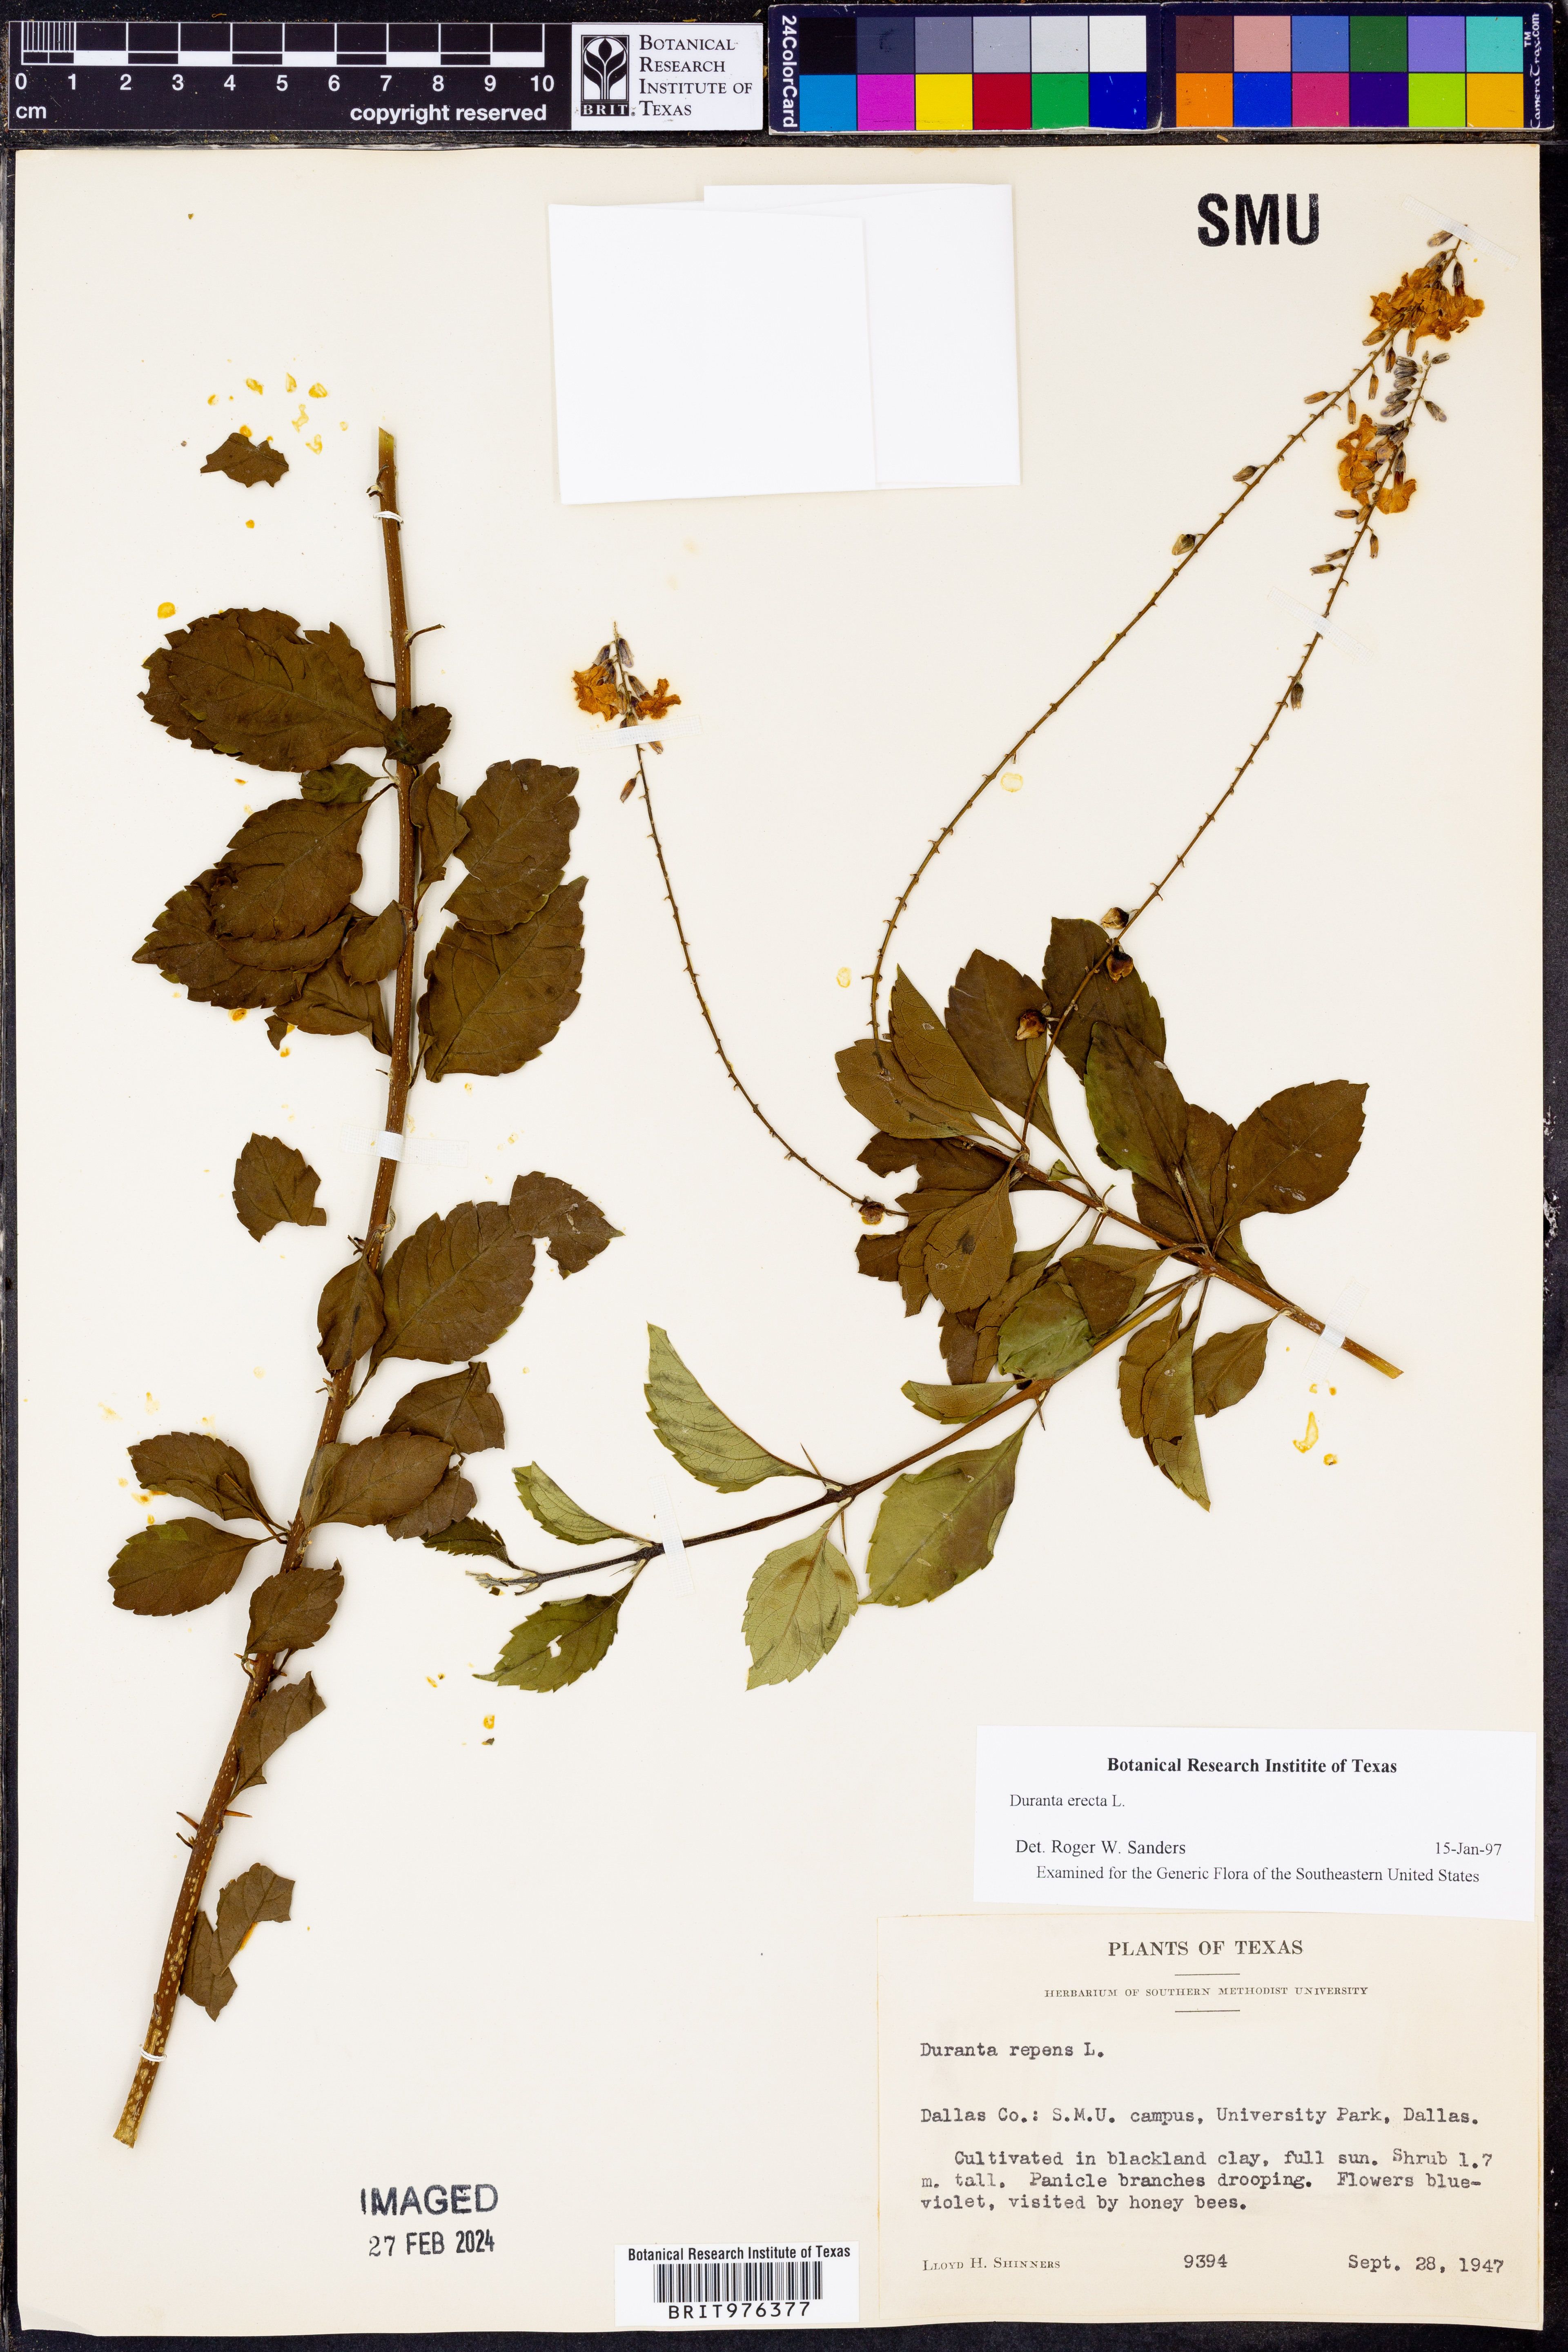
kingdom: Plantae
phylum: Tracheophyta
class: Magnoliopsida
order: Lamiales
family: Verbenaceae
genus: Duranta
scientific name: Duranta
